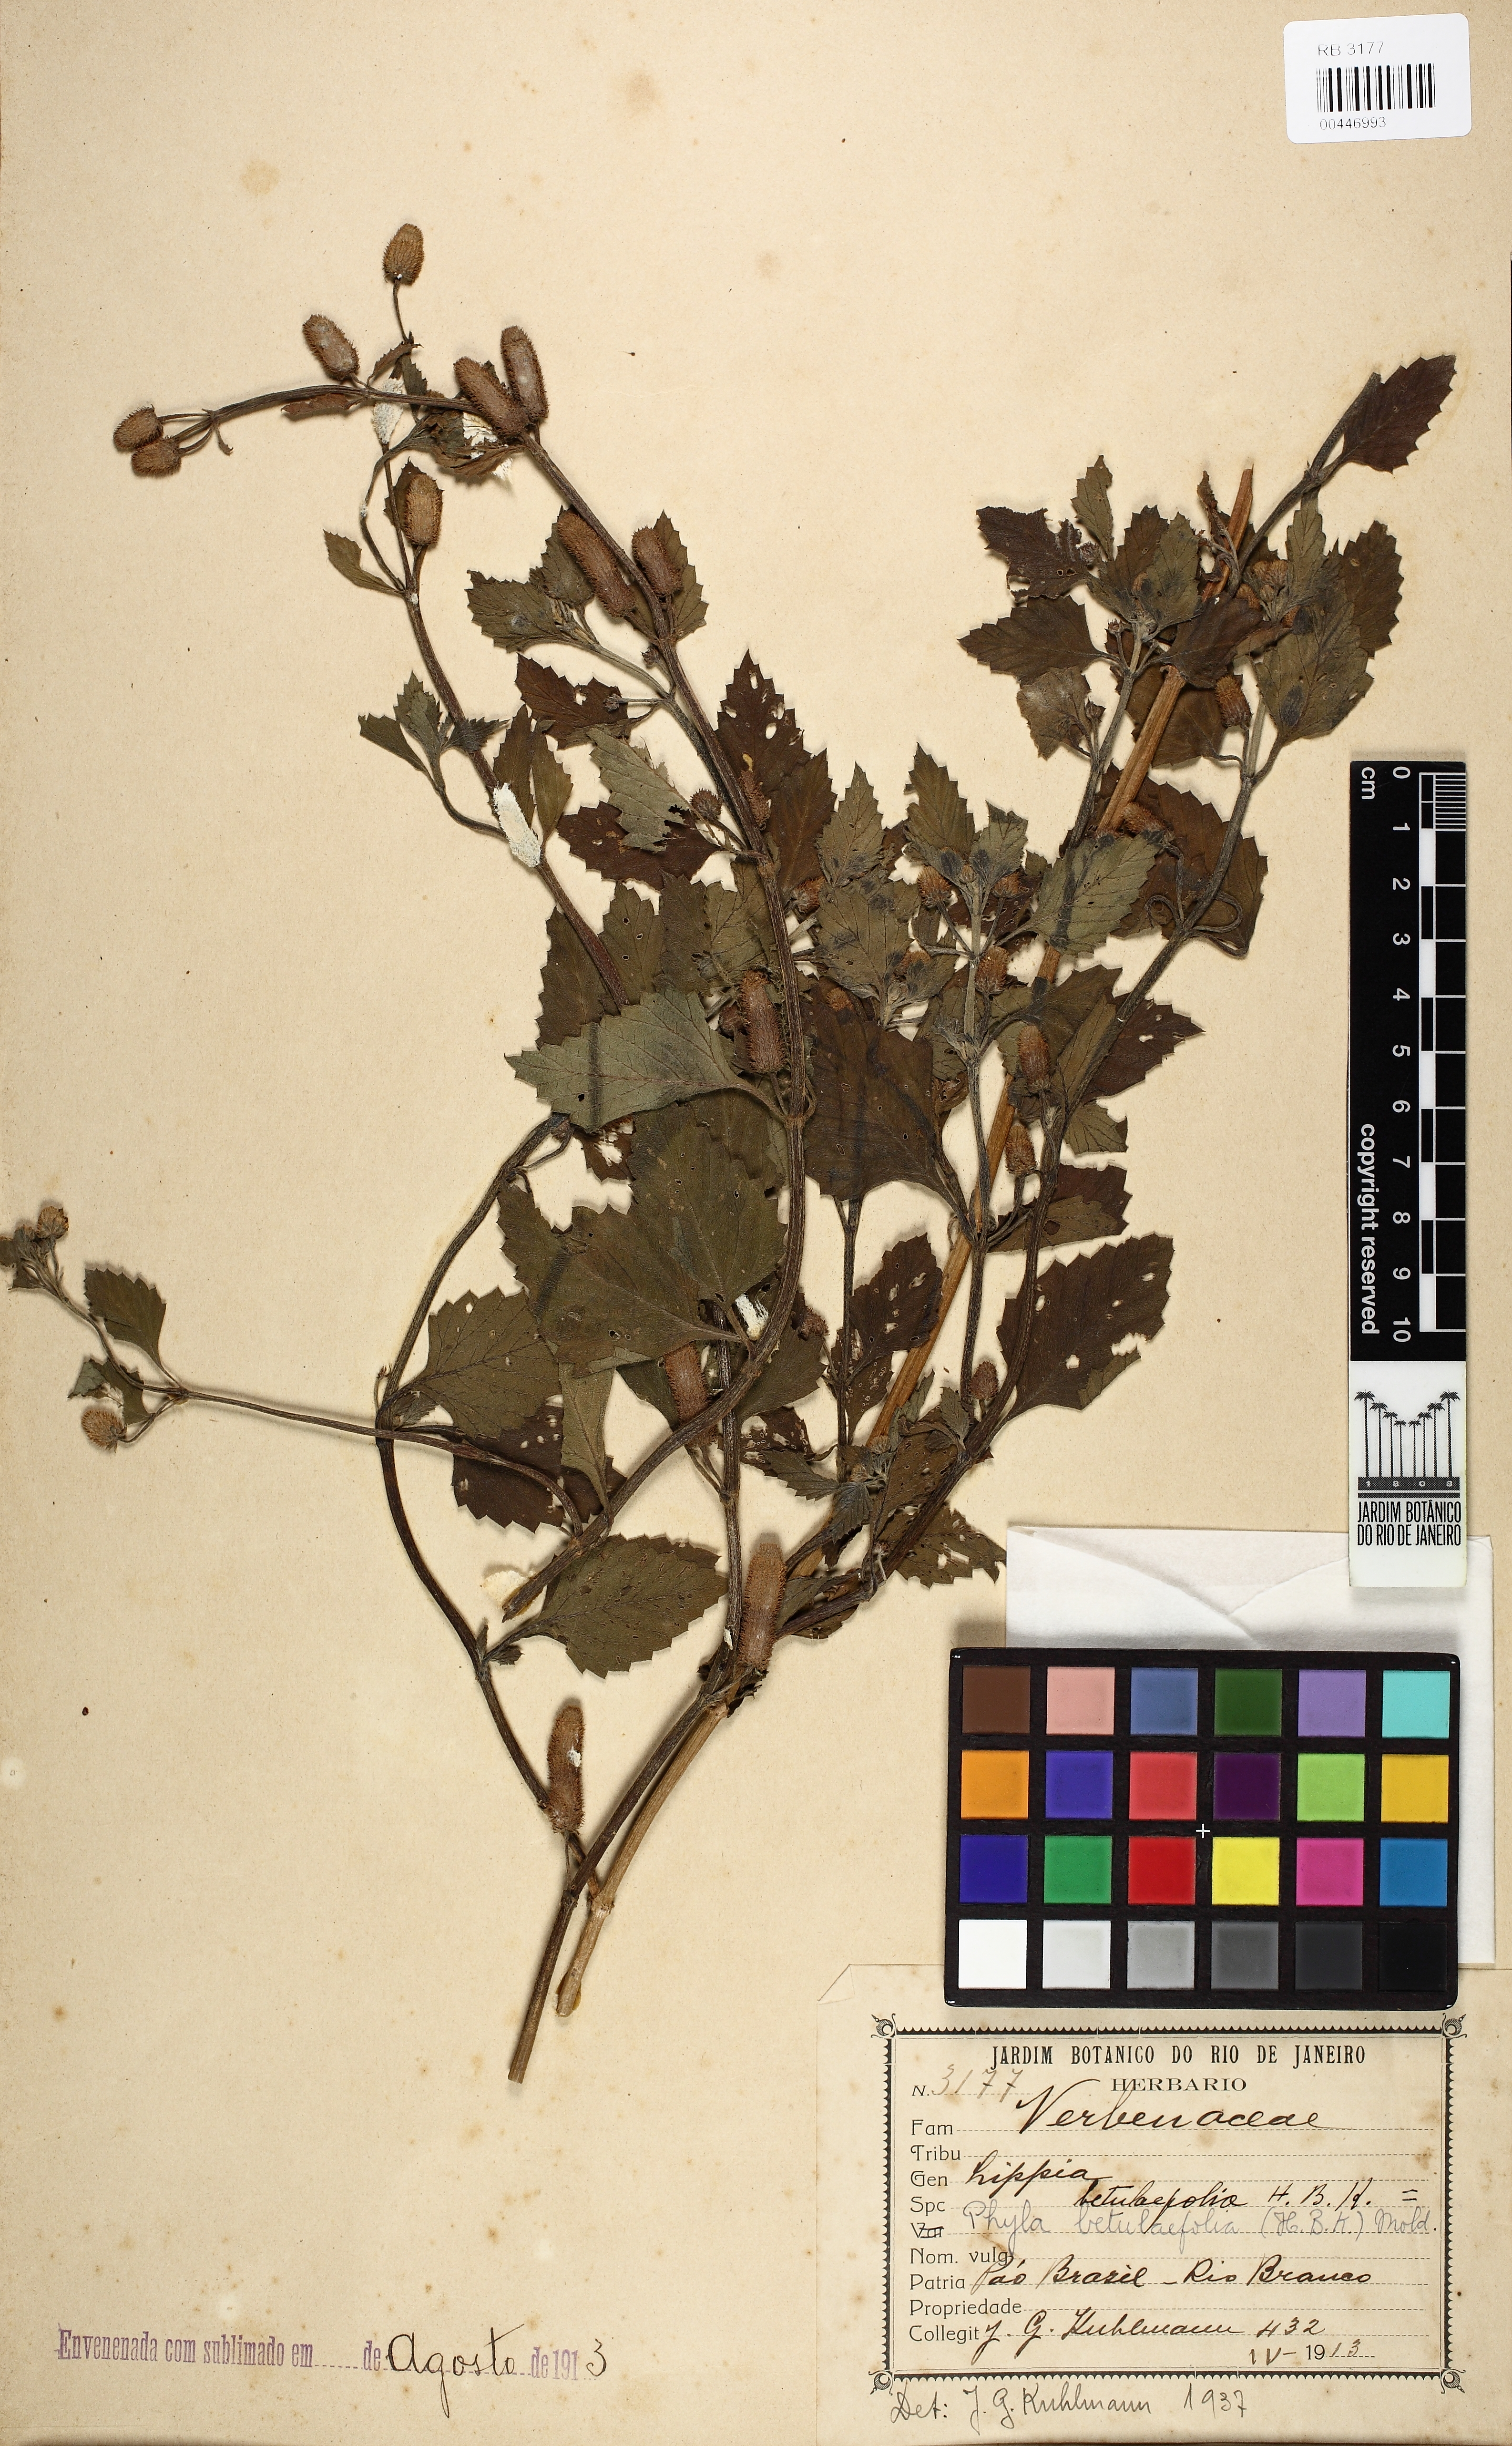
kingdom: Plantae
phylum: Tracheophyta
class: Magnoliopsida
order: Lamiales
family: Verbenaceae
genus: Phyla
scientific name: Phyla betulifolia
